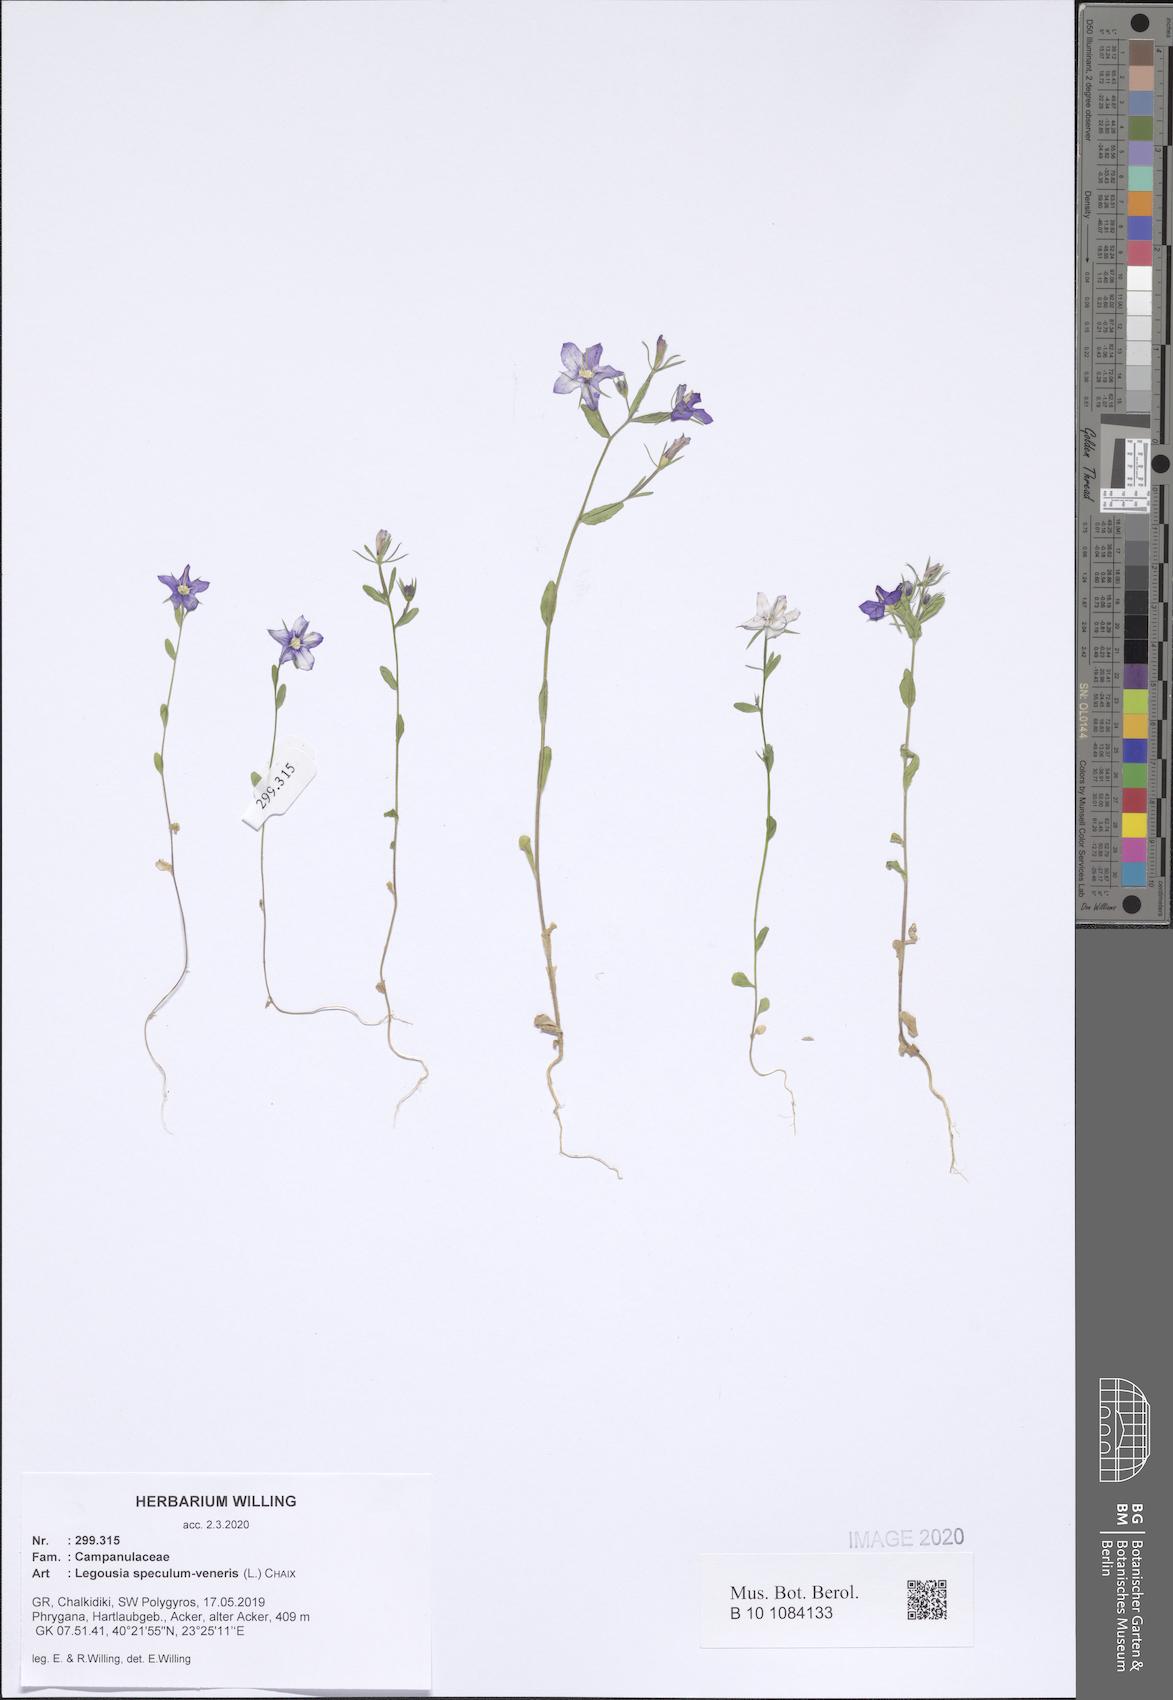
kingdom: Plantae
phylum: Tracheophyta
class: Magnoliopsida
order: Asterales
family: Campanulaceae
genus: Legousia
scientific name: Legousia speculum-veneris
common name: Large venus's-looking-glass
